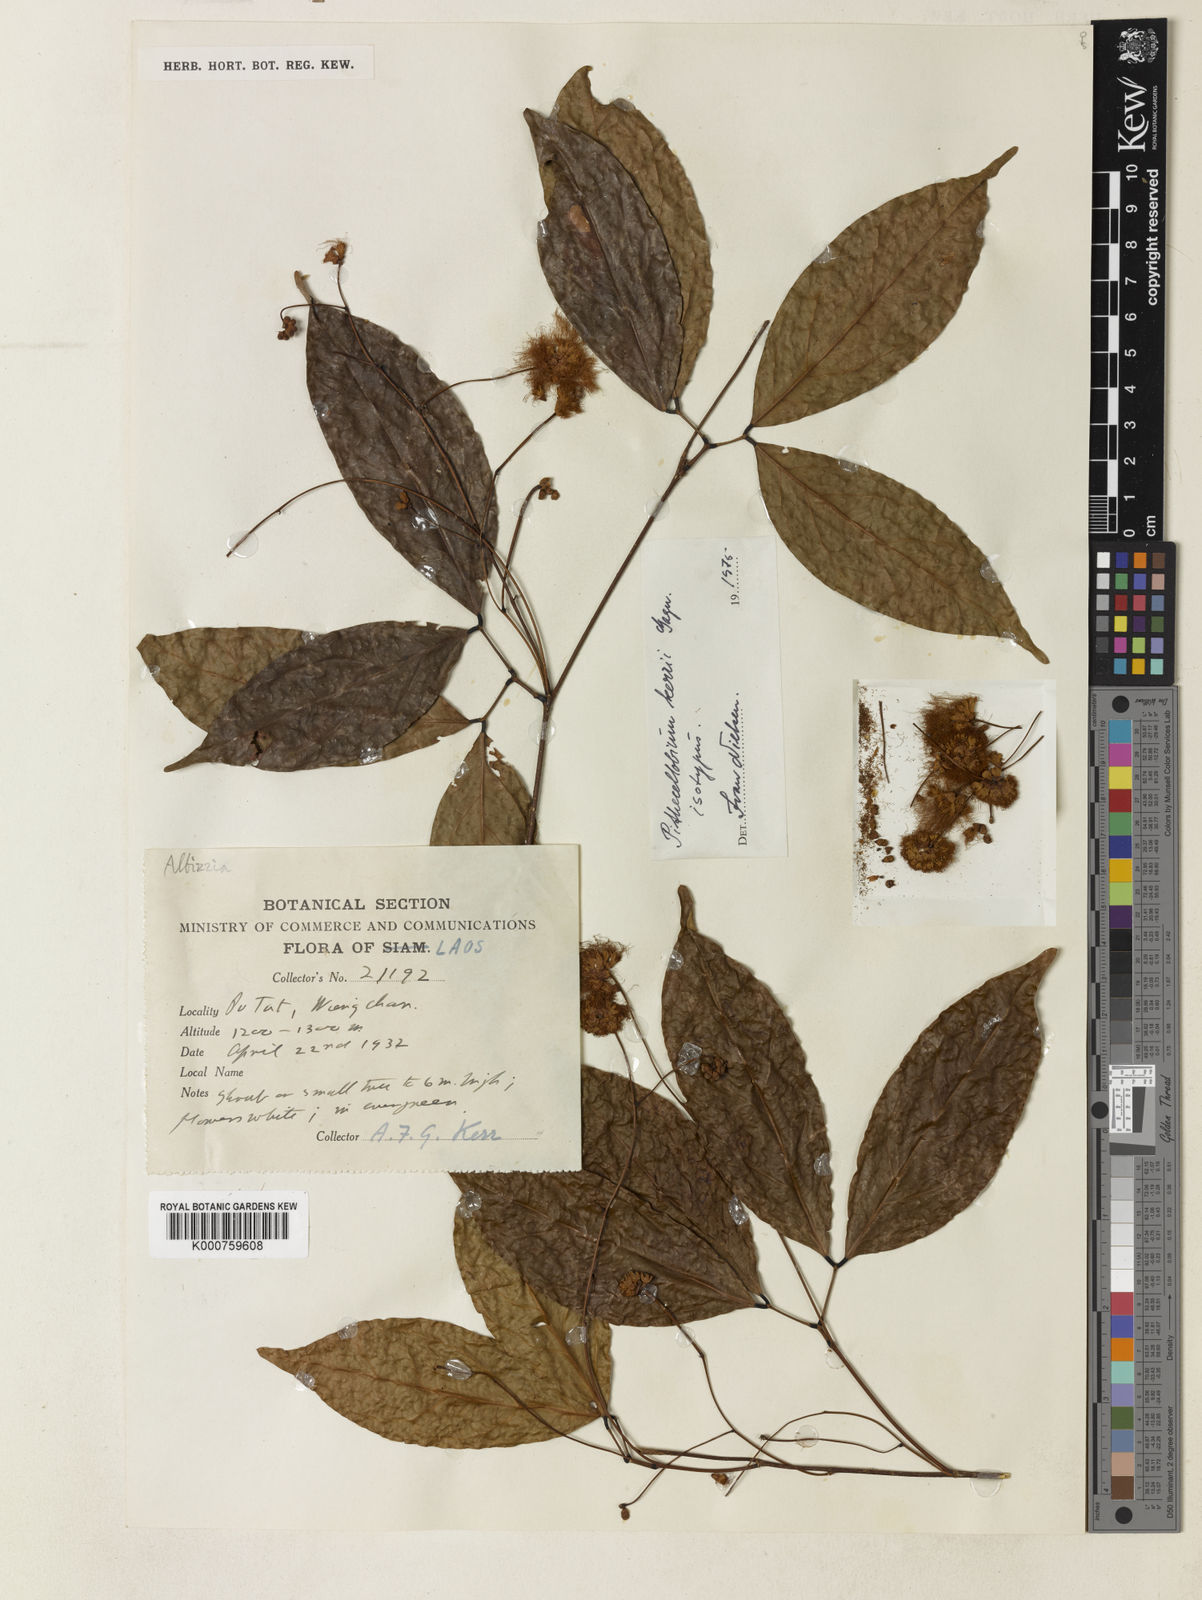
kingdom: Plantae
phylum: Tracheophyta
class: Magnoliopsida
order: Fabales
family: Fabaceae
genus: Archidendron
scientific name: Archidendron kerrii
